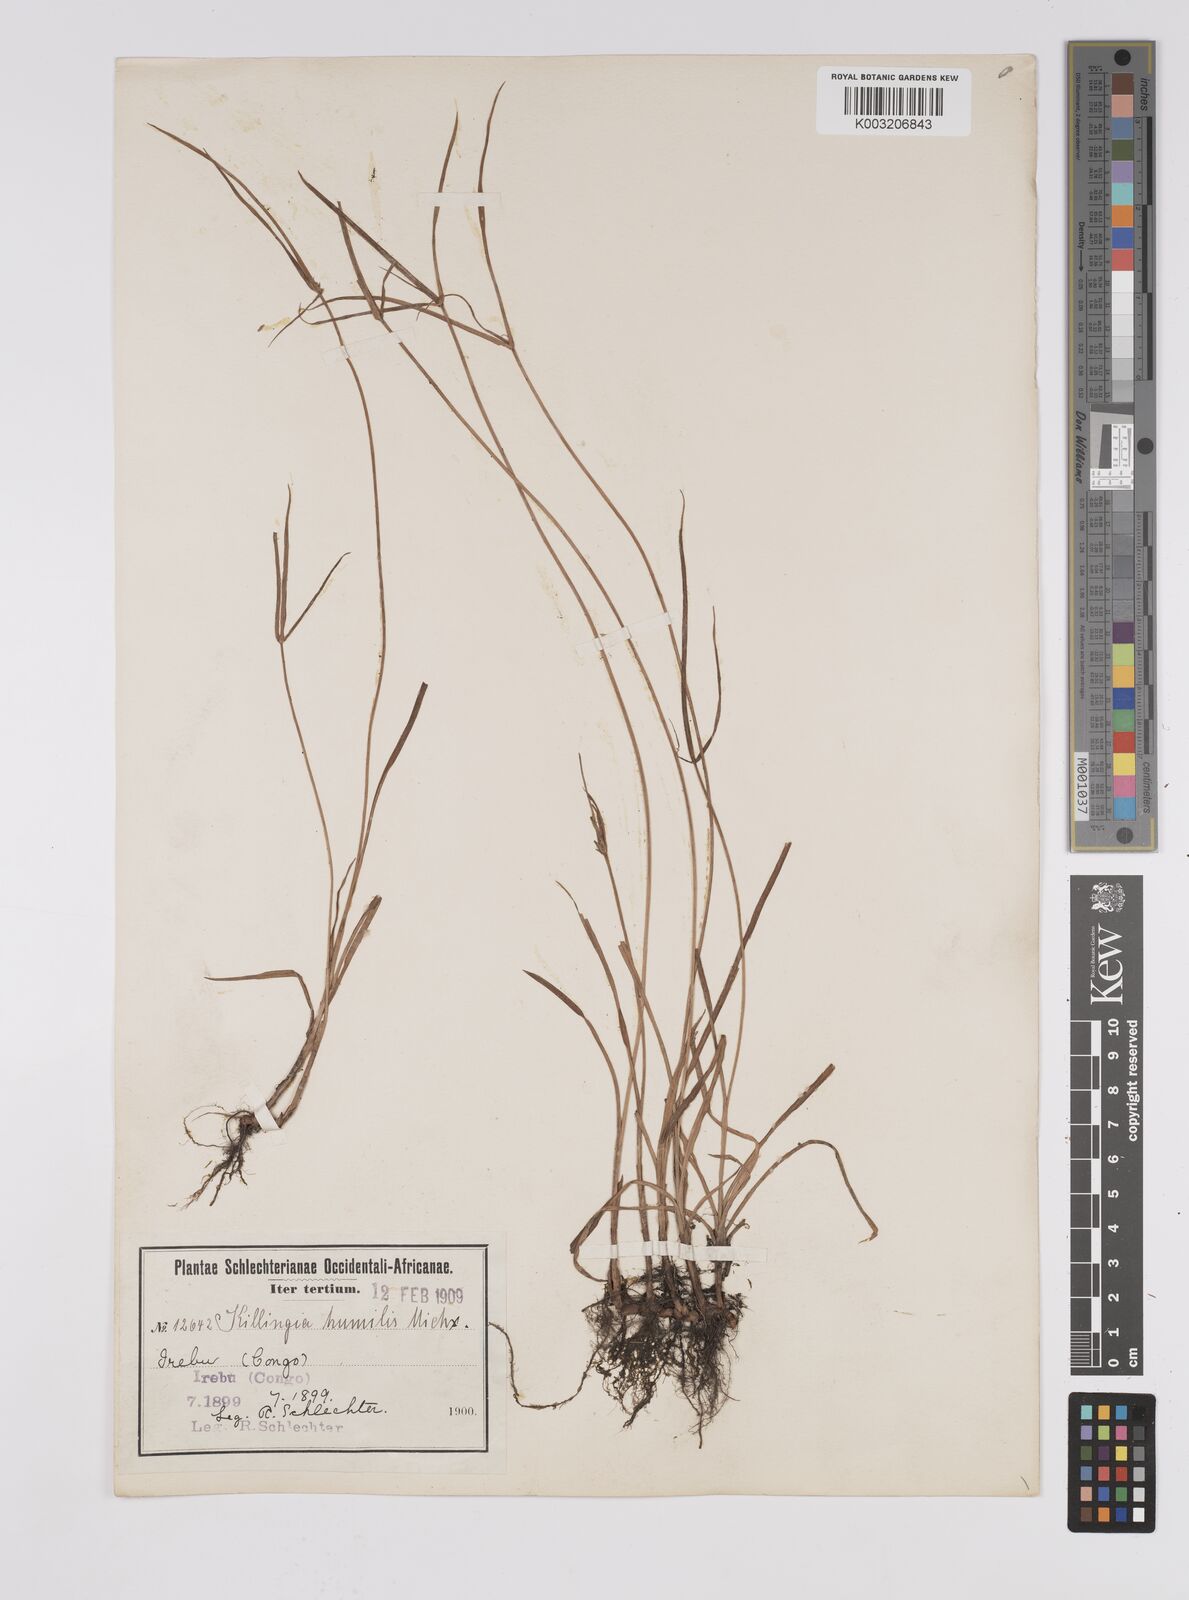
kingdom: Plantae
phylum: Tracheophyta
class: Liliopsida
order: Poales
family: Cyperaceae
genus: Cyperus
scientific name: Cyperus erectus
